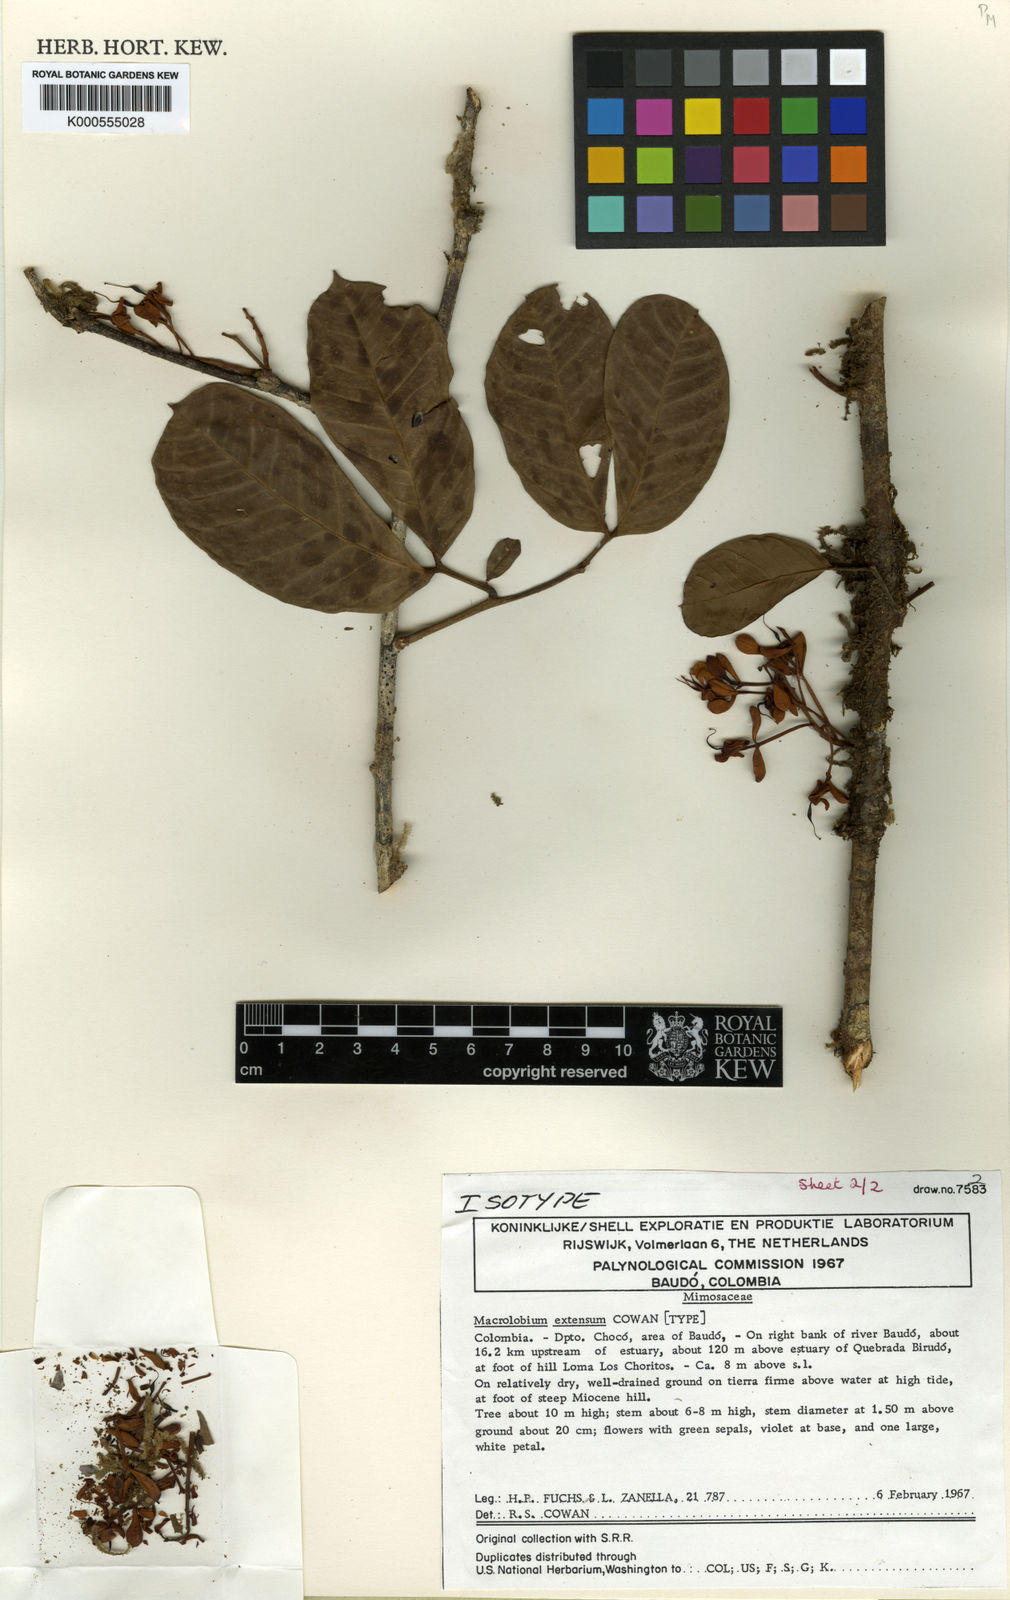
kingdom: Plantae
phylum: Tracheophyta
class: Magnoliopsida
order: Fabales
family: Fabaceae
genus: Macrolobium
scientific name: Macrolobium extensum
